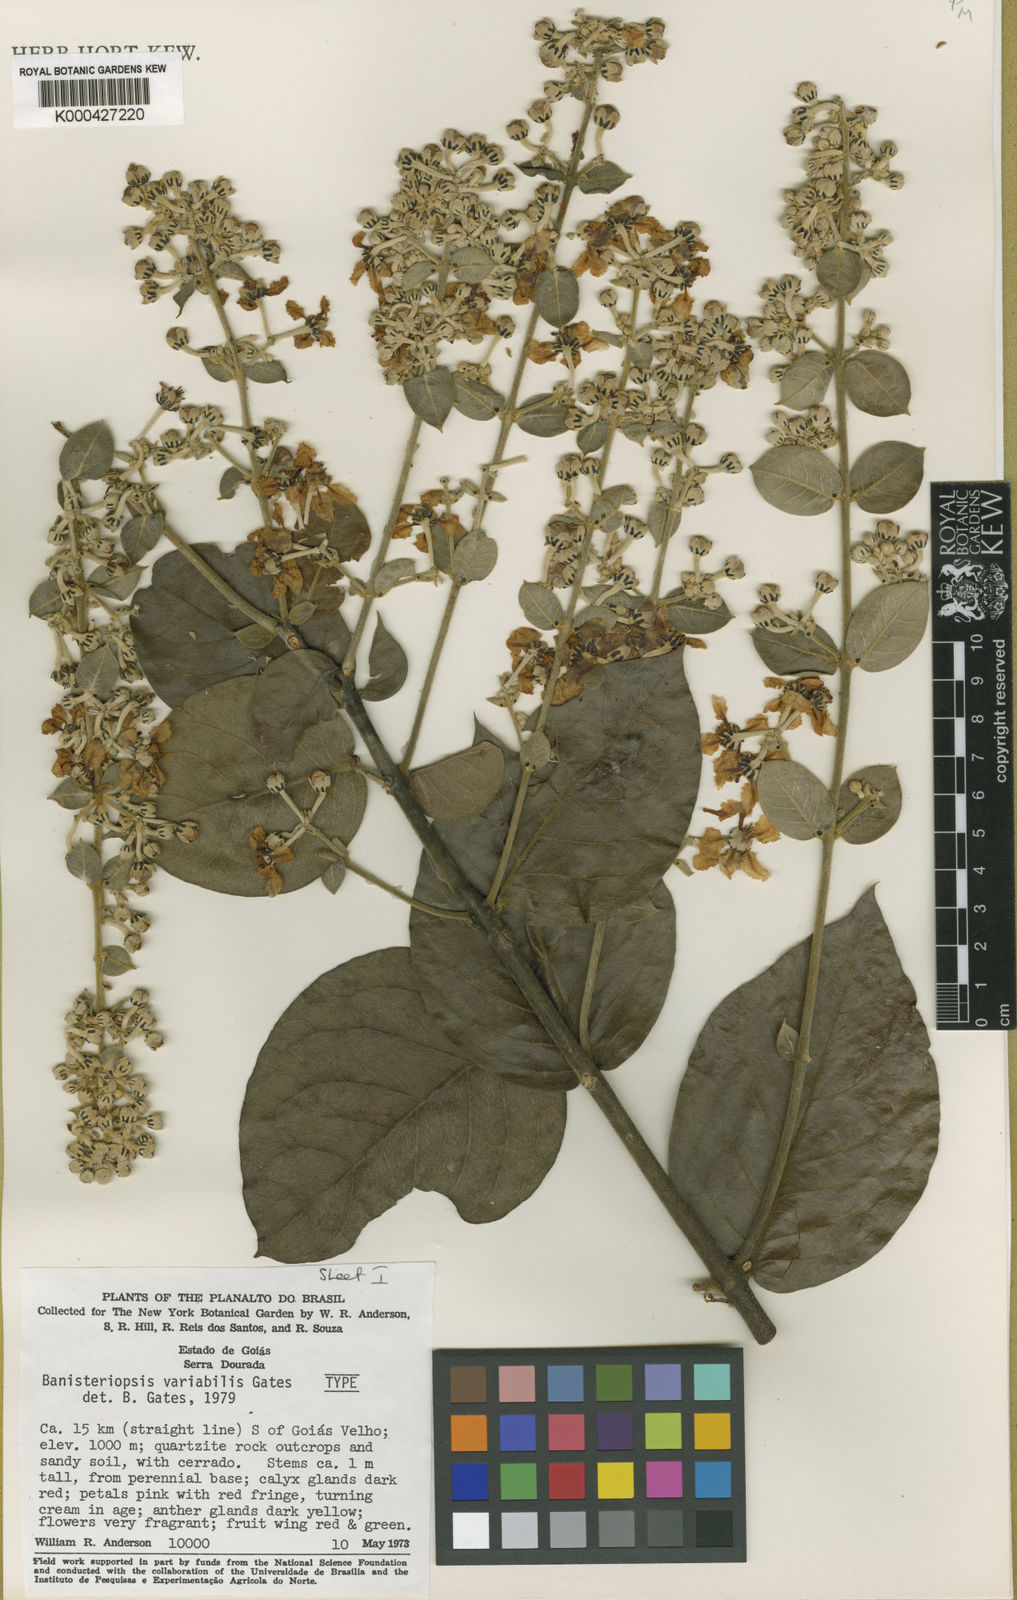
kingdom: Plantae
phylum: Tracheophyta
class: Magnoliopsida
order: Malpighiales
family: Malpighiaceae
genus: Banisteriopsis
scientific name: Banisteriopsis variabilis
